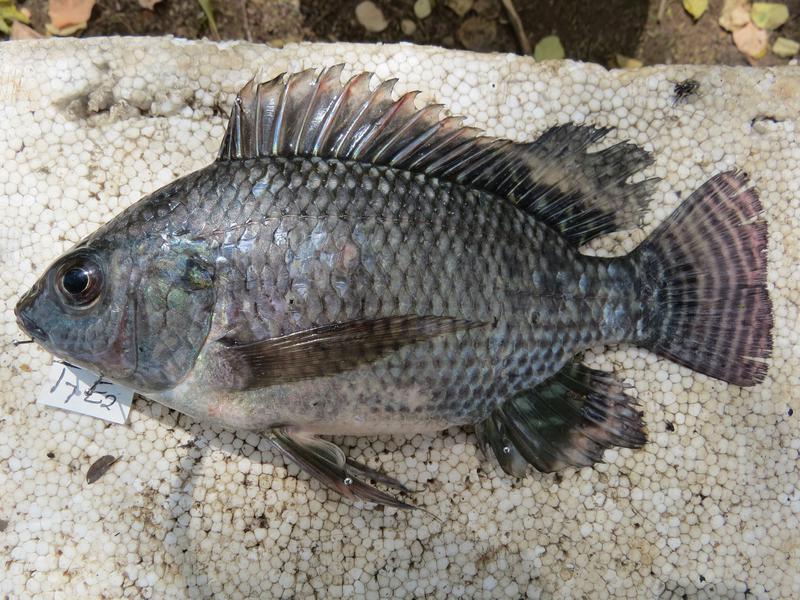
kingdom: Animalia
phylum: Chordata
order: Perciformes
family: Cichlidae
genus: Oreochromis
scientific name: Oreochromis niloticus
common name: Nile tilapia
